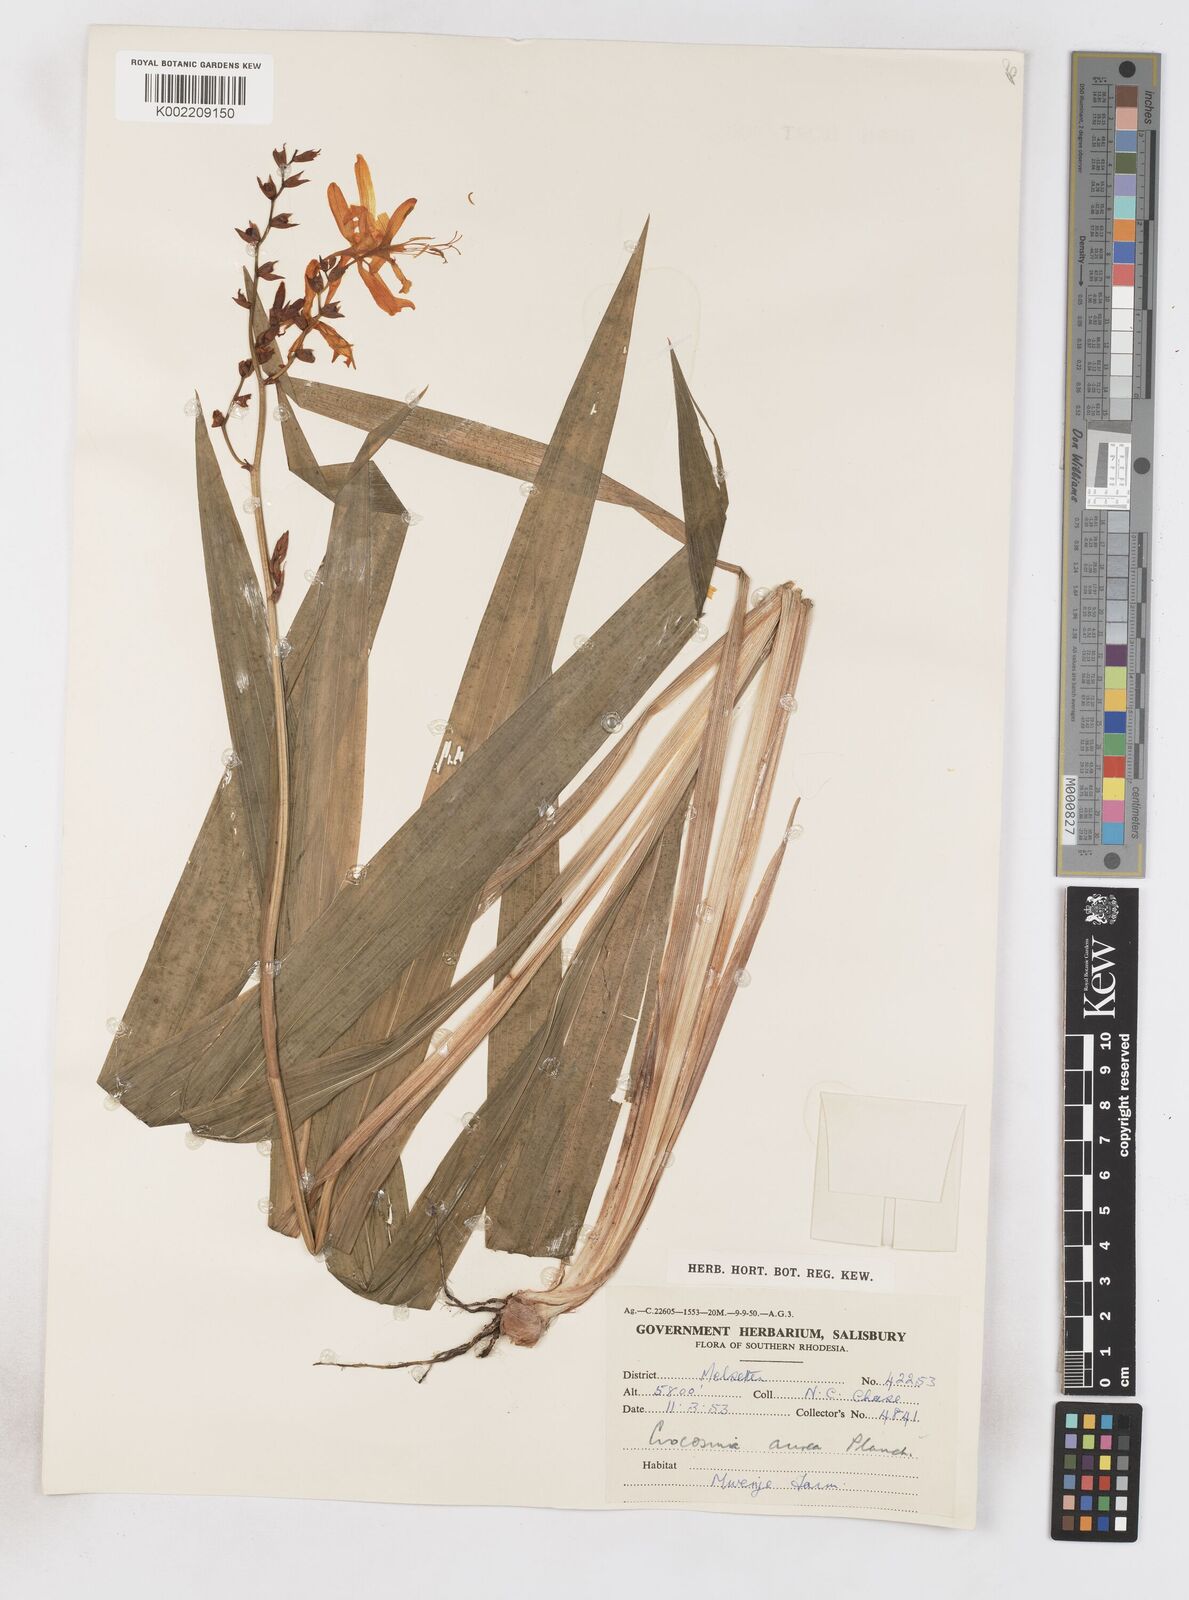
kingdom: Plantae
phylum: Tracheophyta
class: Liliopsida
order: Asparagales
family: Iridaceae
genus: Crocosmia
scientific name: Crocosmia aurea
